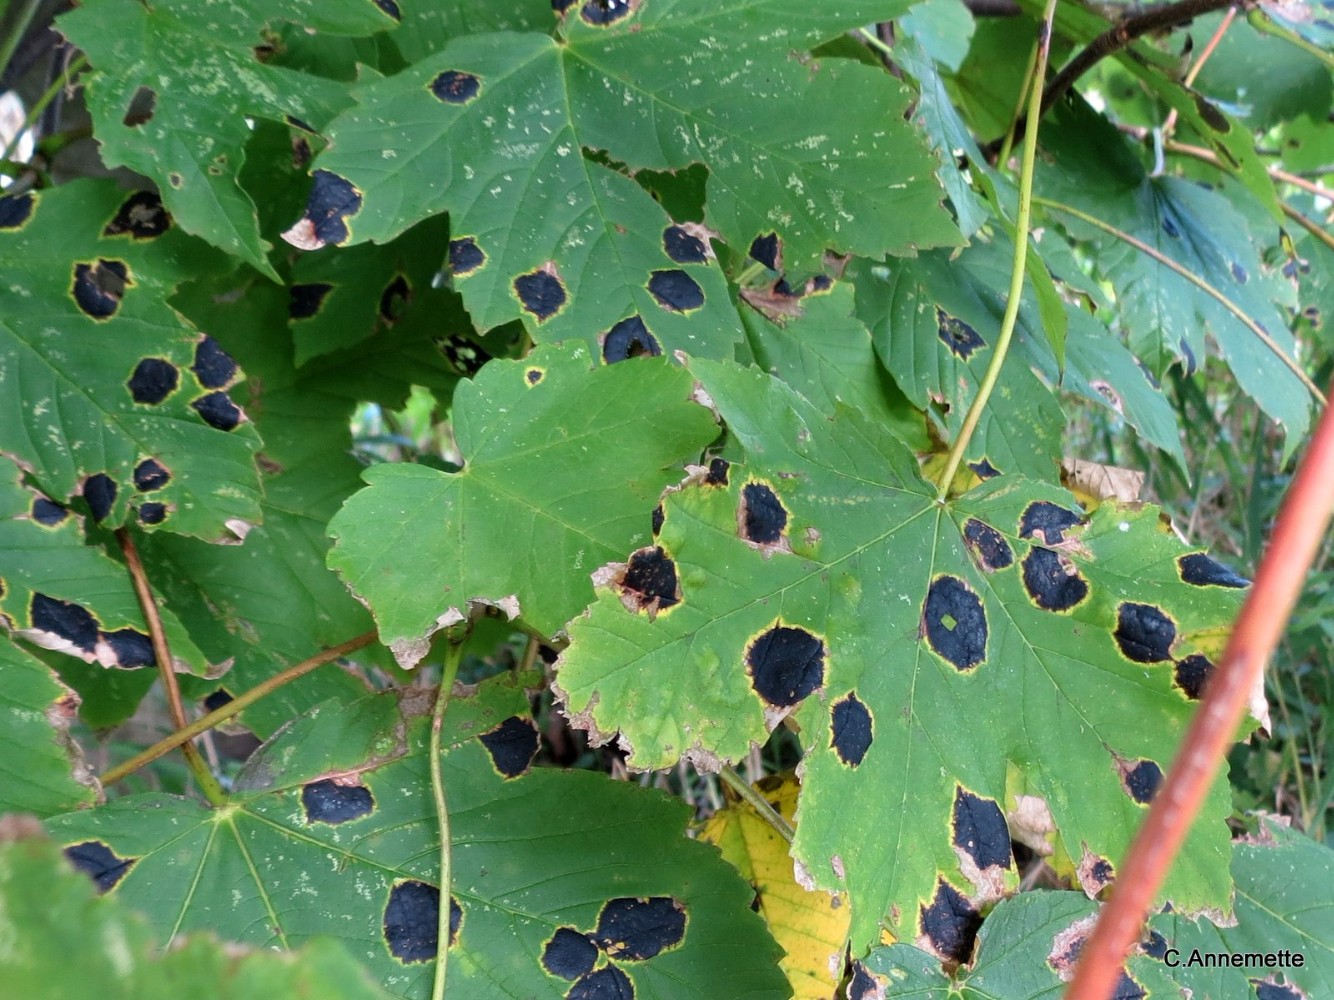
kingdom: Fungi
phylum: Ascomycota
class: Leotiomycetes
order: Rhytismatales
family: Rhytismataceae
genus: Rhytisma
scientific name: Rhytisma acerinum
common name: ahorn-rynkeplet
